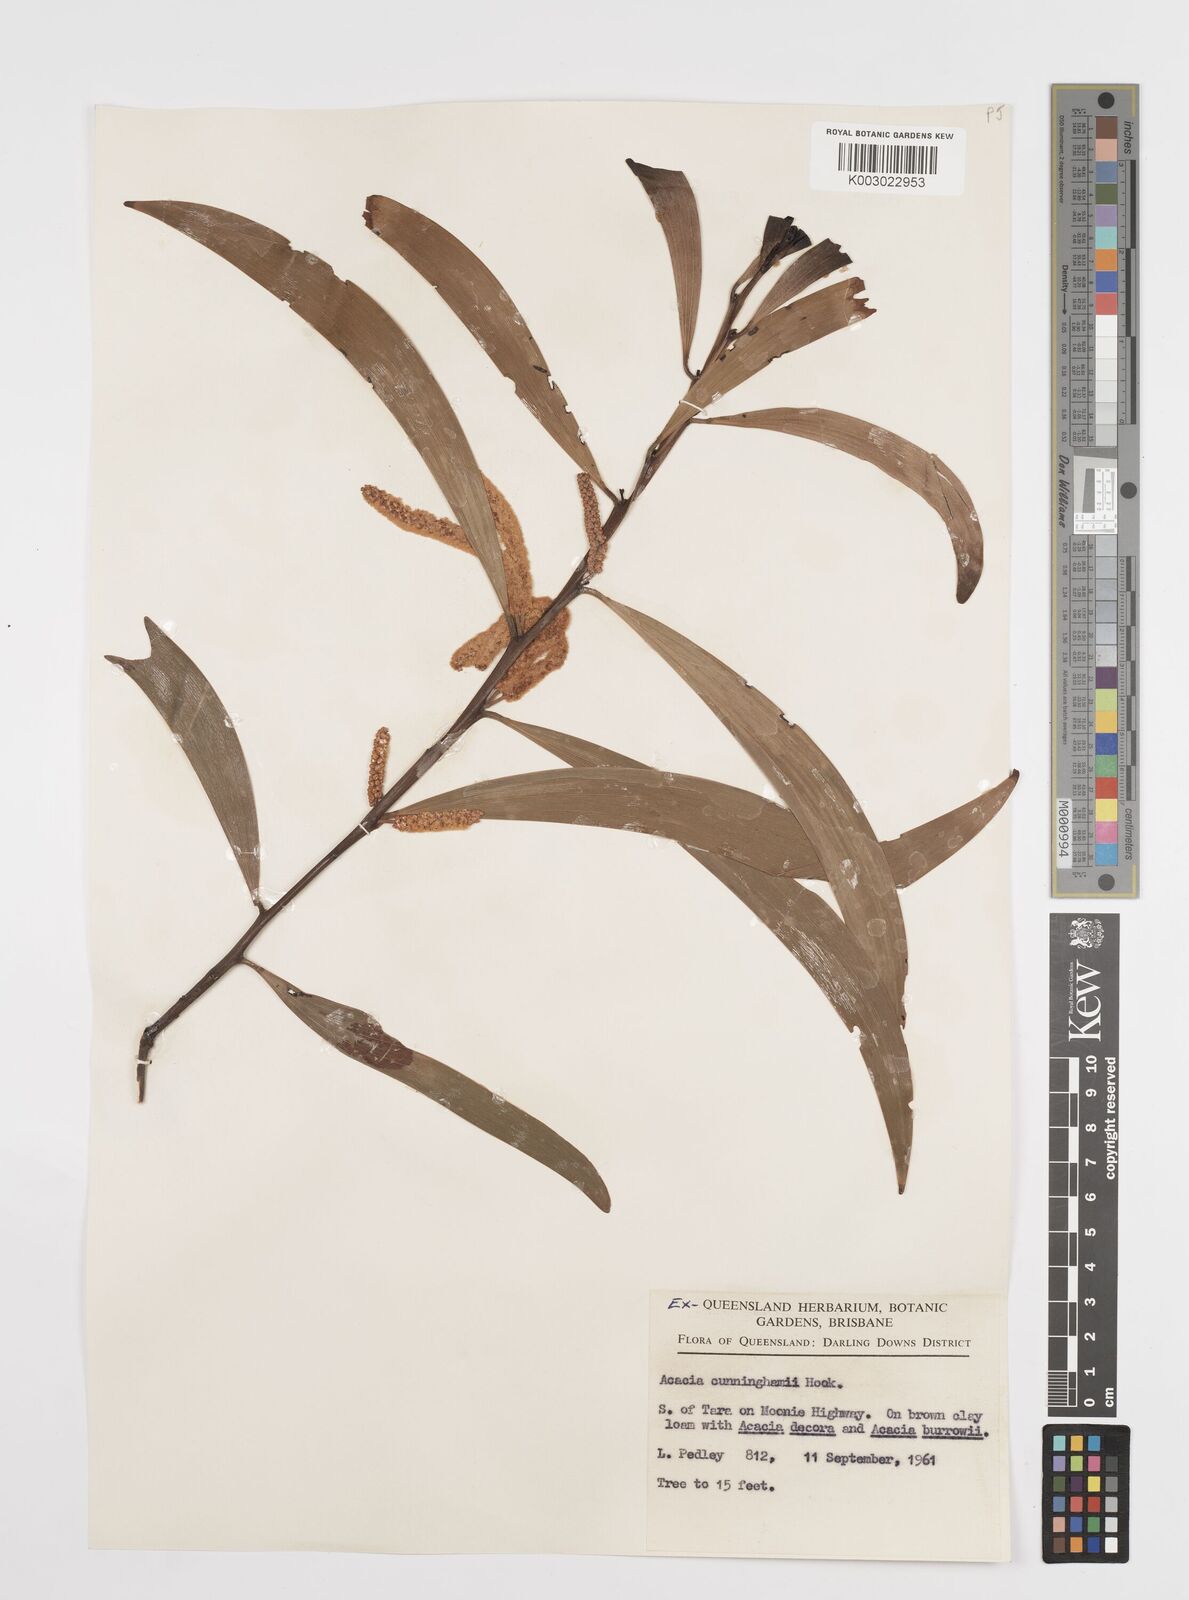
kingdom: Plantae
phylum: Tracheophyta
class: Magnoliopsida
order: Fabales
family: Fabaceae
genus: Acacia
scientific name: Acacia longispicata
